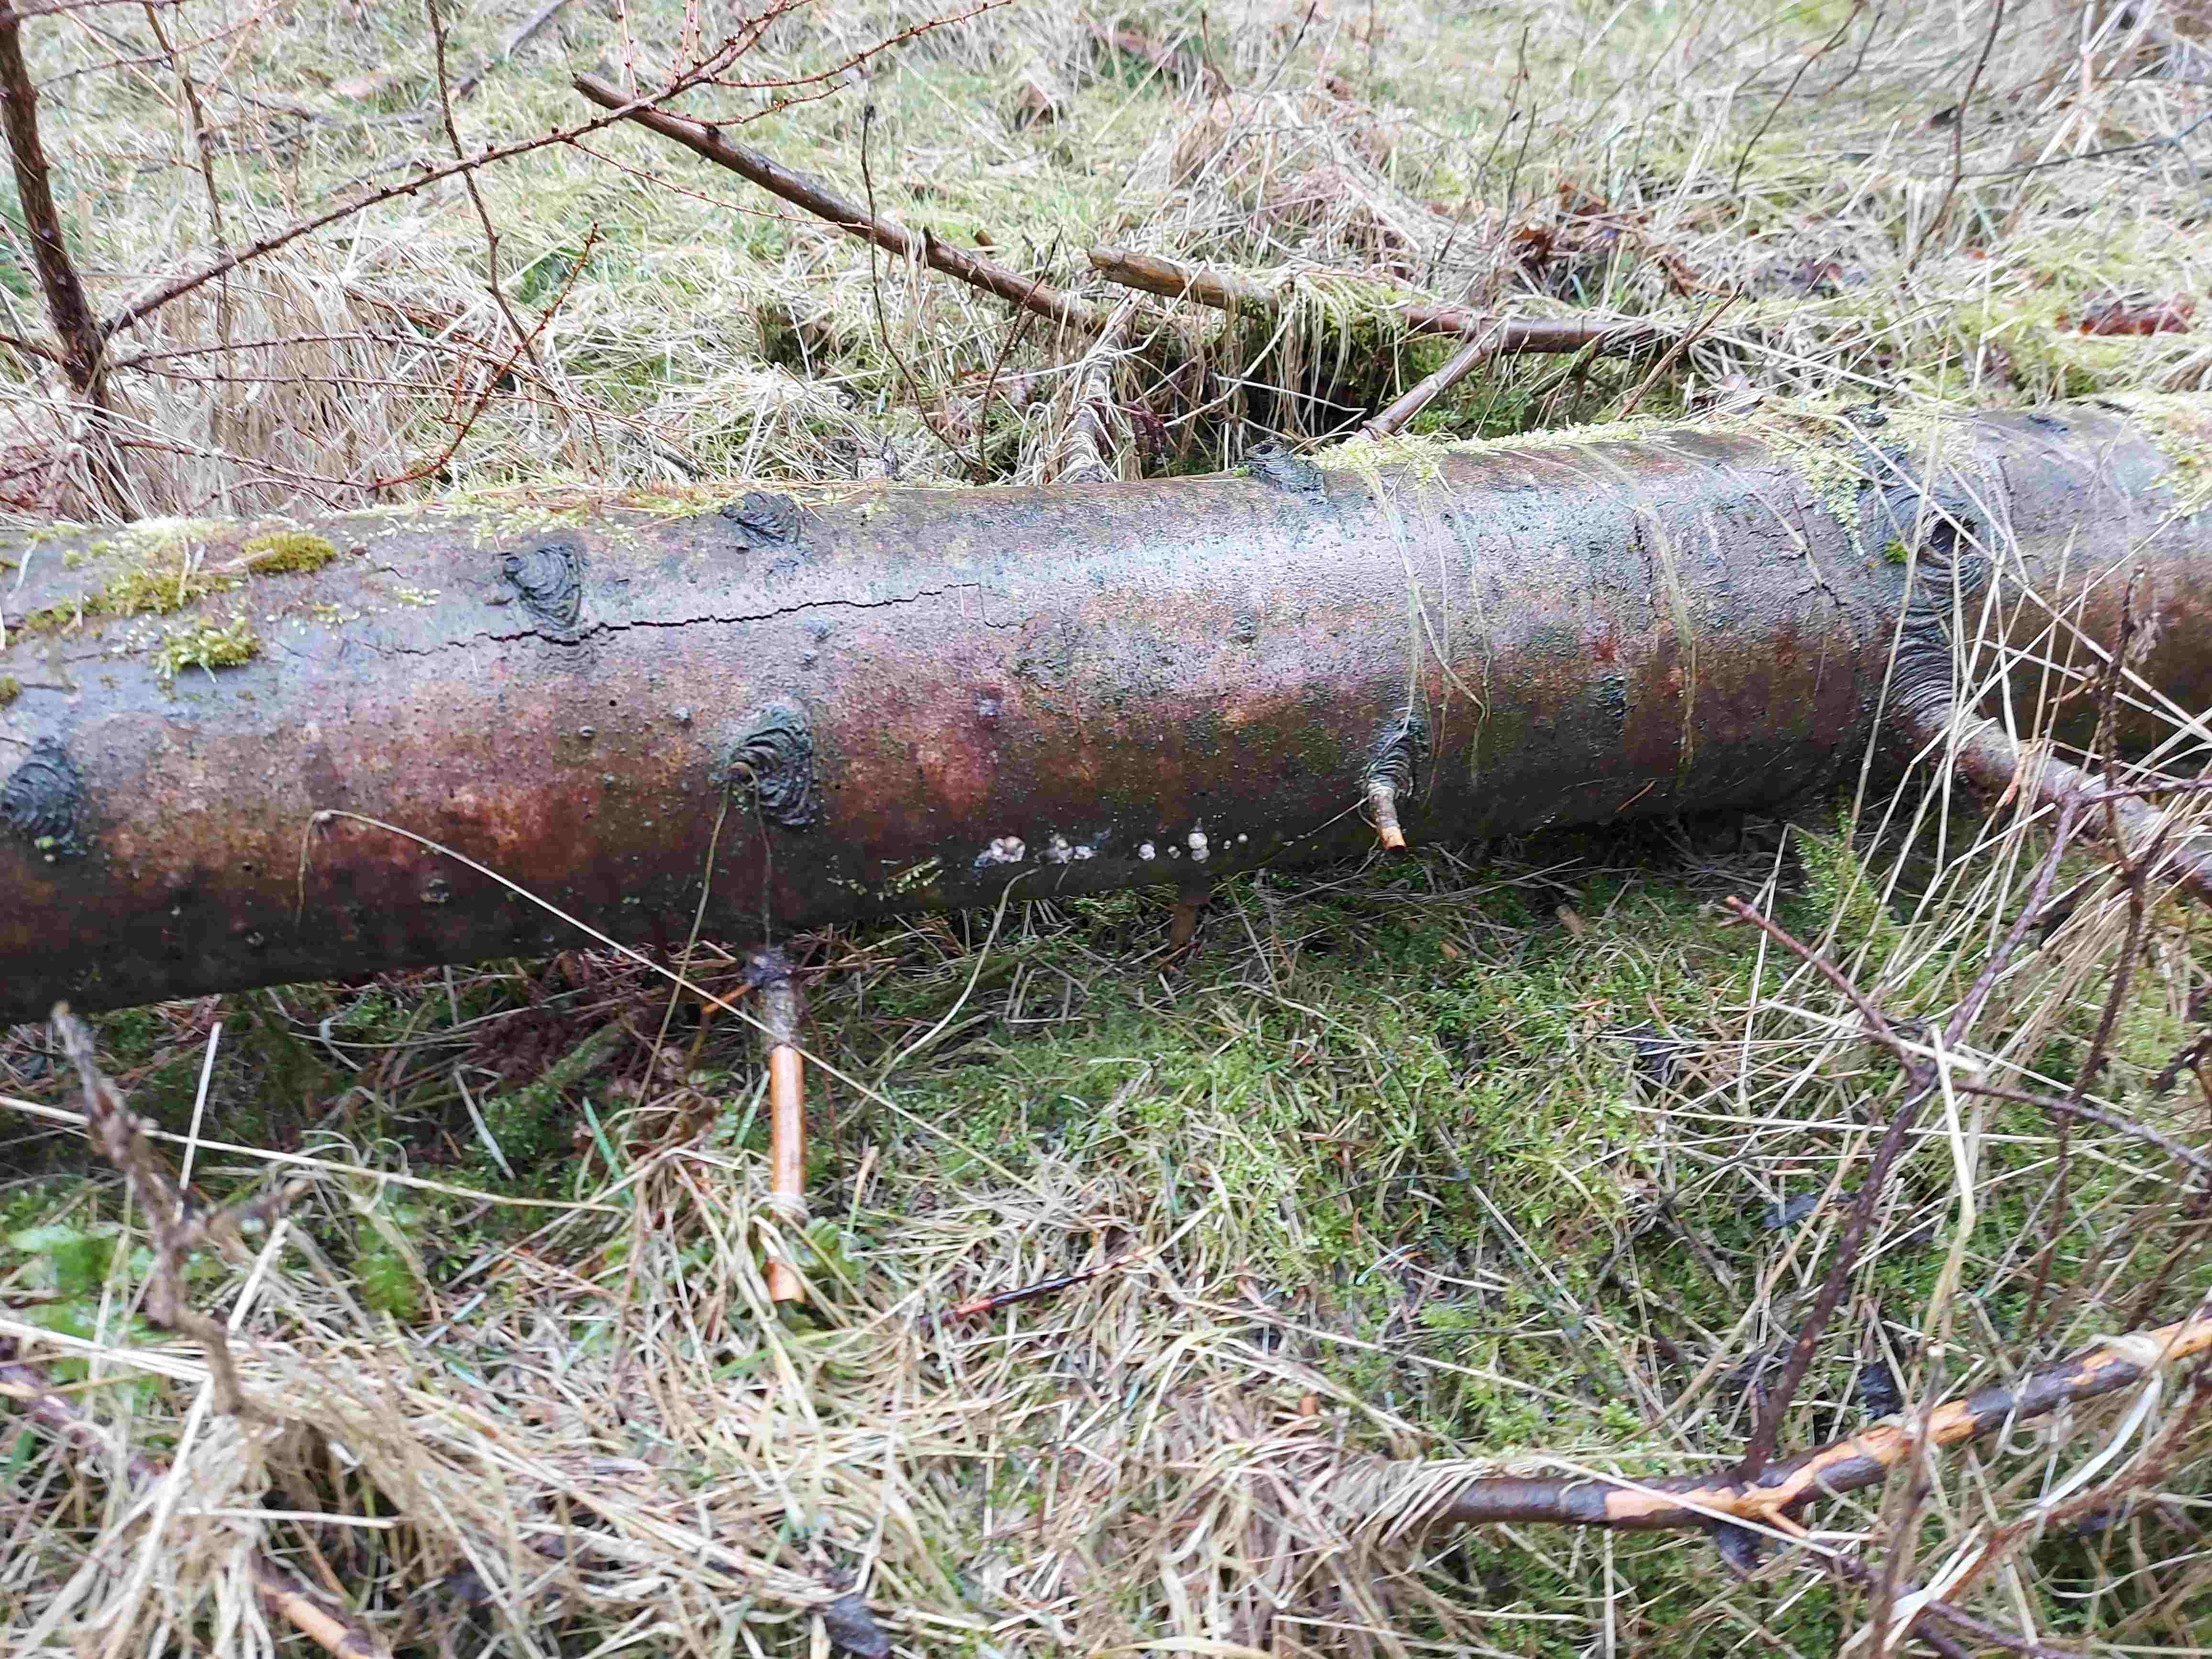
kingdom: Protozoa
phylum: Mycetozoa
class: Myxomycetes
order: Cribrariales
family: Tubiferaceae
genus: Lycogala
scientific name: Lycogala epidendrum
